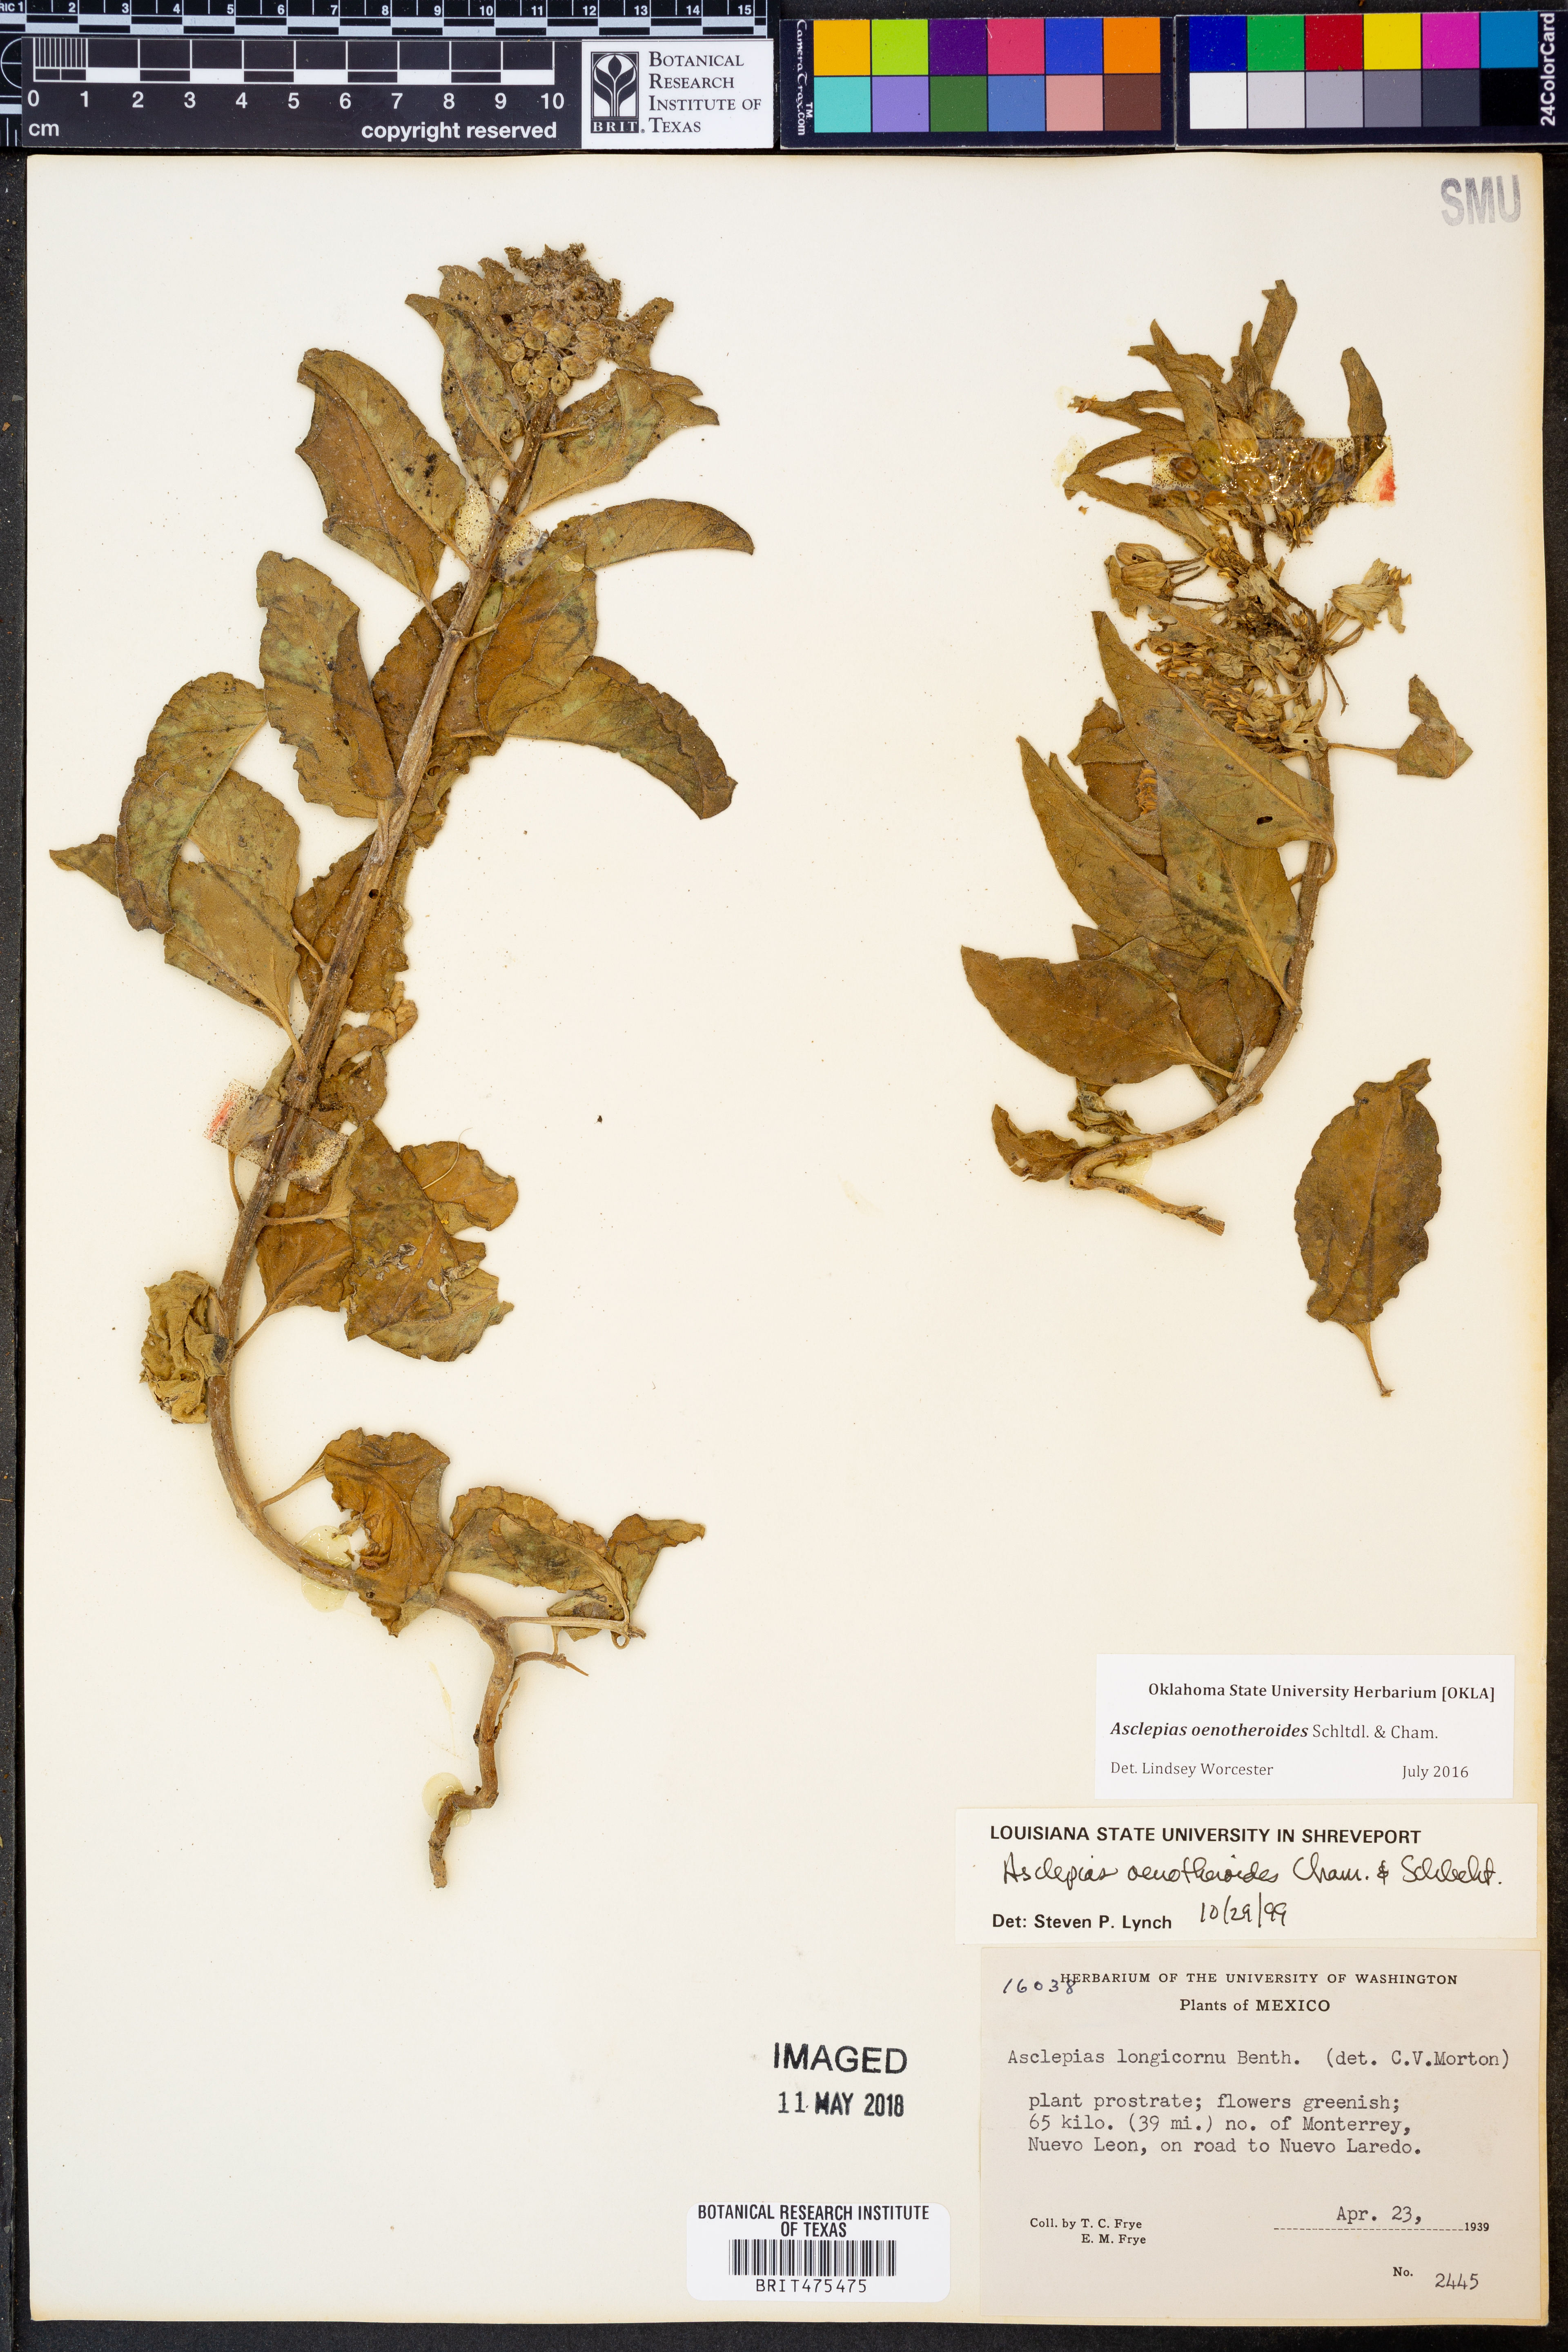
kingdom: Plantae
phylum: Tracheophyta
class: Magnoliopsida
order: Gentianales
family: Apocynaceae
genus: Asclepias
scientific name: Asclepias oenotheroides
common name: Zizotes milkweed
